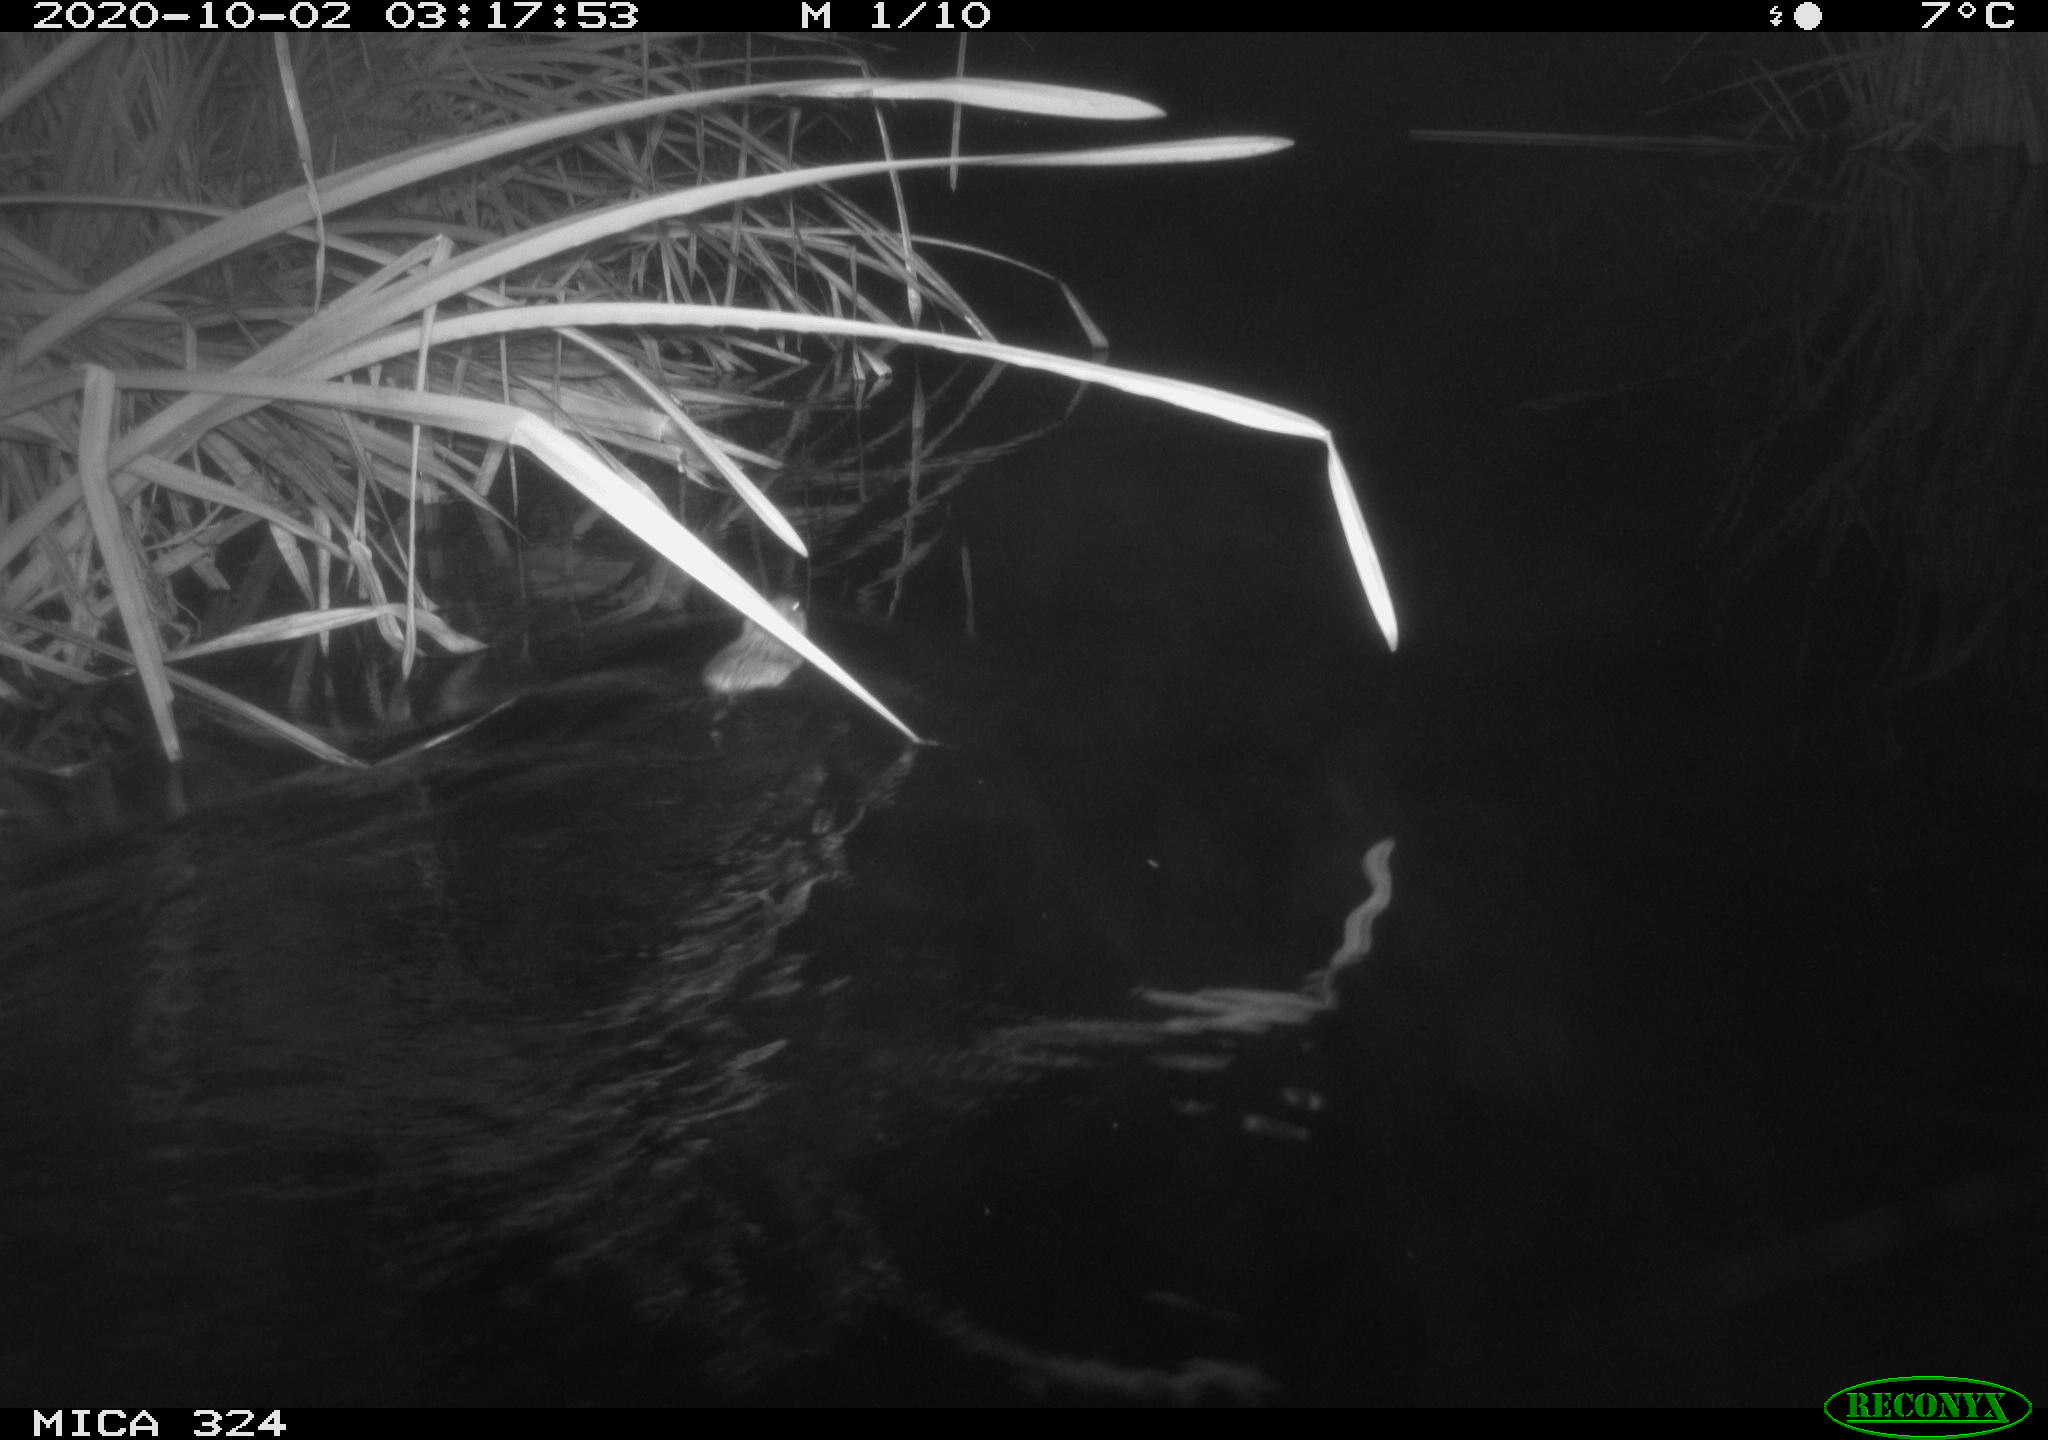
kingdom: Animalia
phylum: Chordata
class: Mammalia
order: Rodentia
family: Cricetidae
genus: Ondatra
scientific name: Ondatra zibethicus
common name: Muskrat
